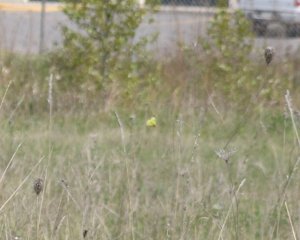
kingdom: Animalia
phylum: Arthropoda
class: Insecta
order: Lepidoptera
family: Pieridae
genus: Colias
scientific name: Colias philodice
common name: Clouded Sulphur
